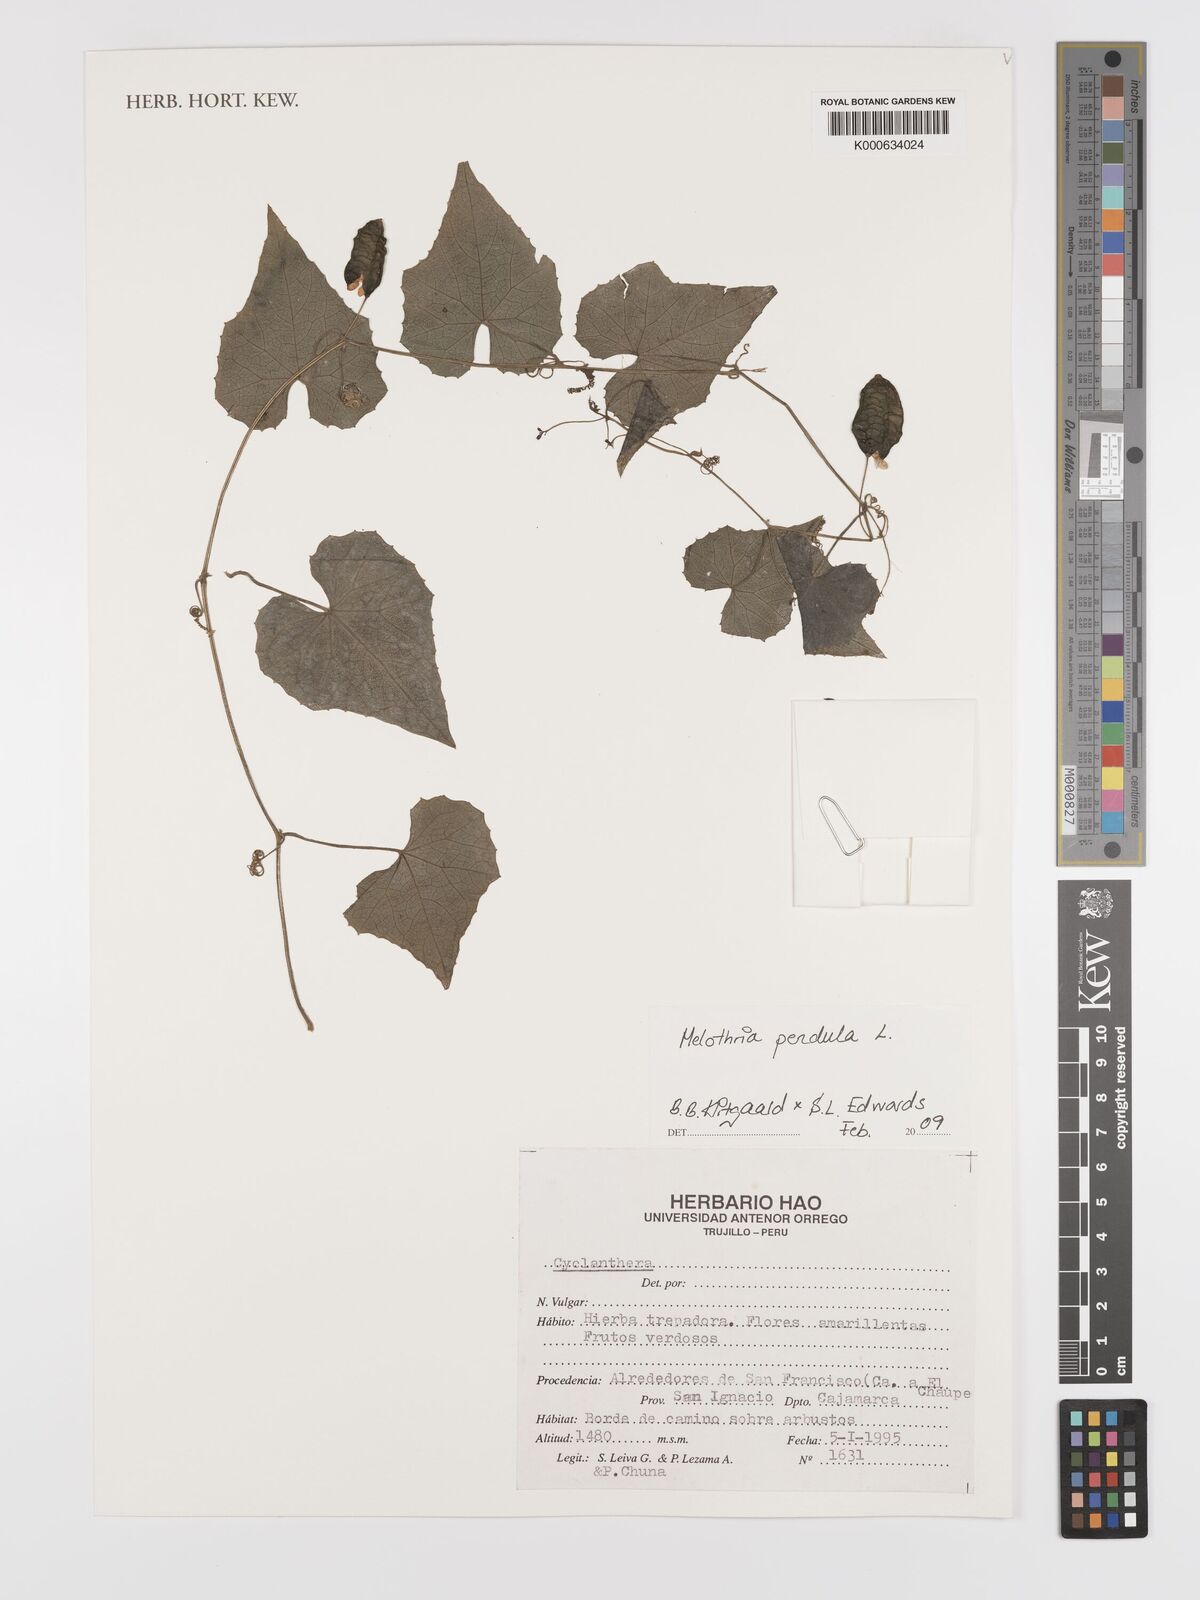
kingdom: Plantae
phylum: Tracheophyta
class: Magnoliopsida
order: Cucurbitales
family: Cucurbitaceae
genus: Melothria
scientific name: Melothria pendula
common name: Creeping-cucumber
